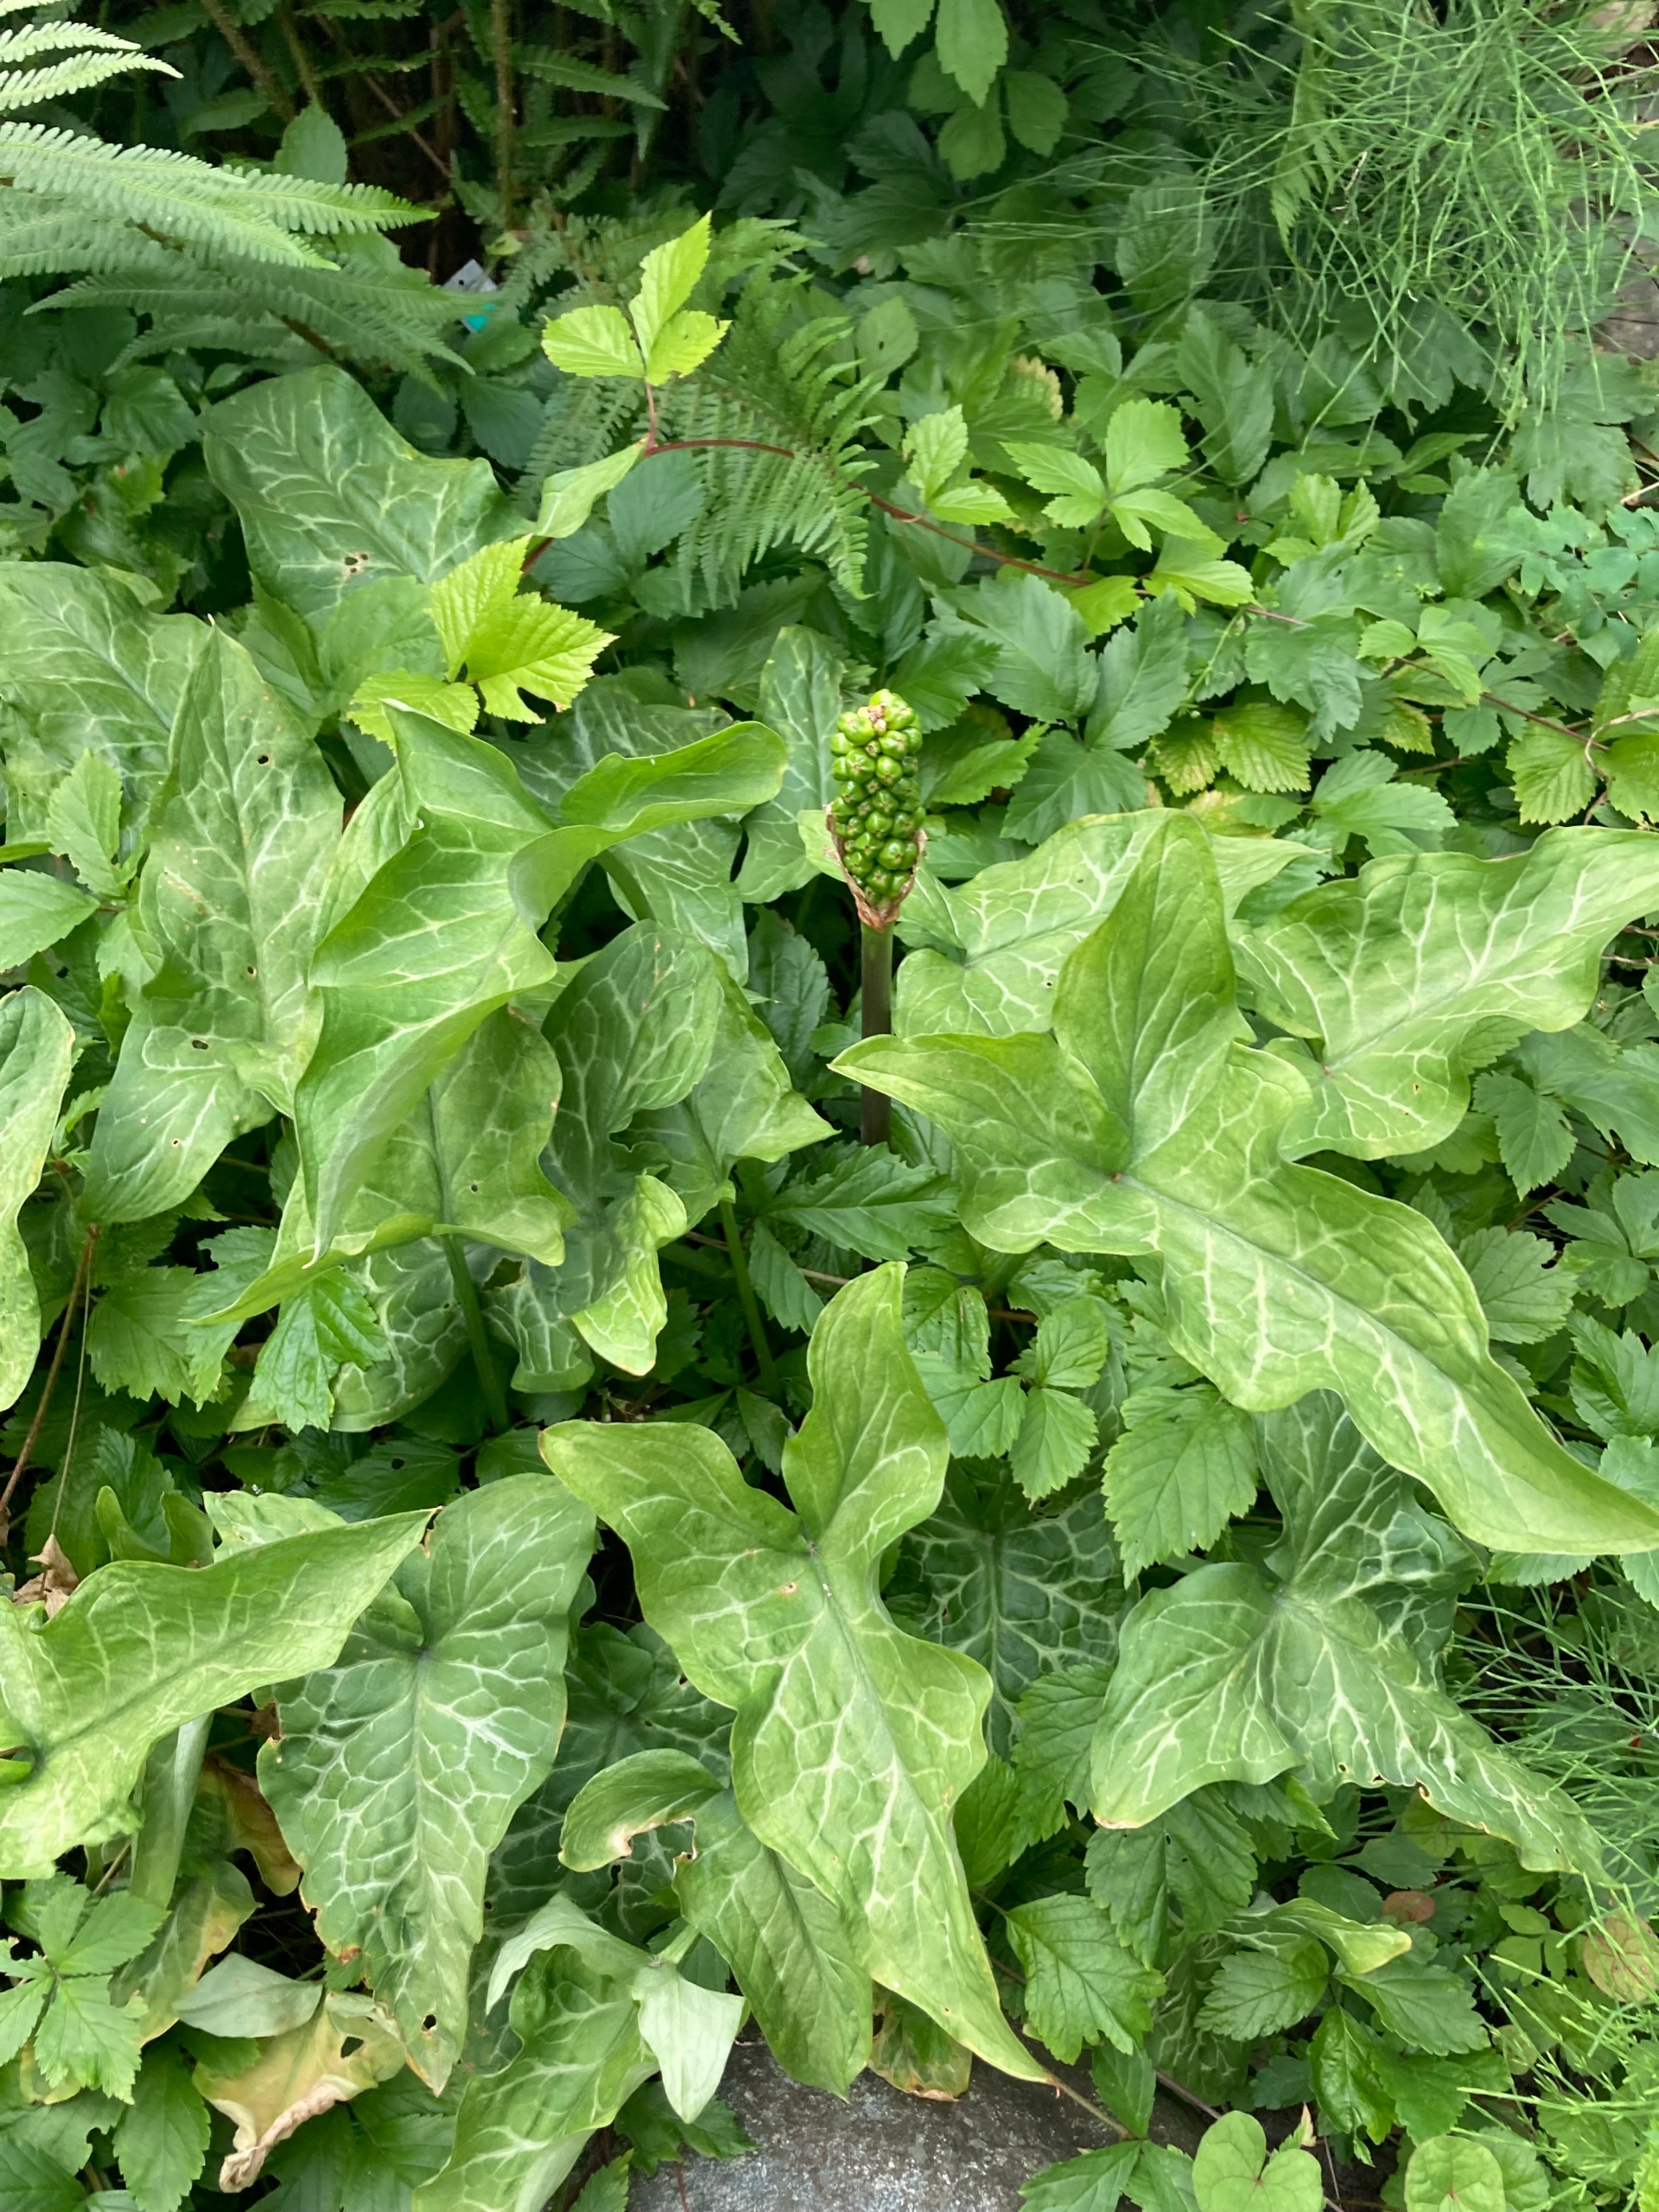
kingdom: Plantae
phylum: Tracheophyta
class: Liliopsida
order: Alismatales
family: Araceae
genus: Arum
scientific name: Arum italicum
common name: Italiensk arum
